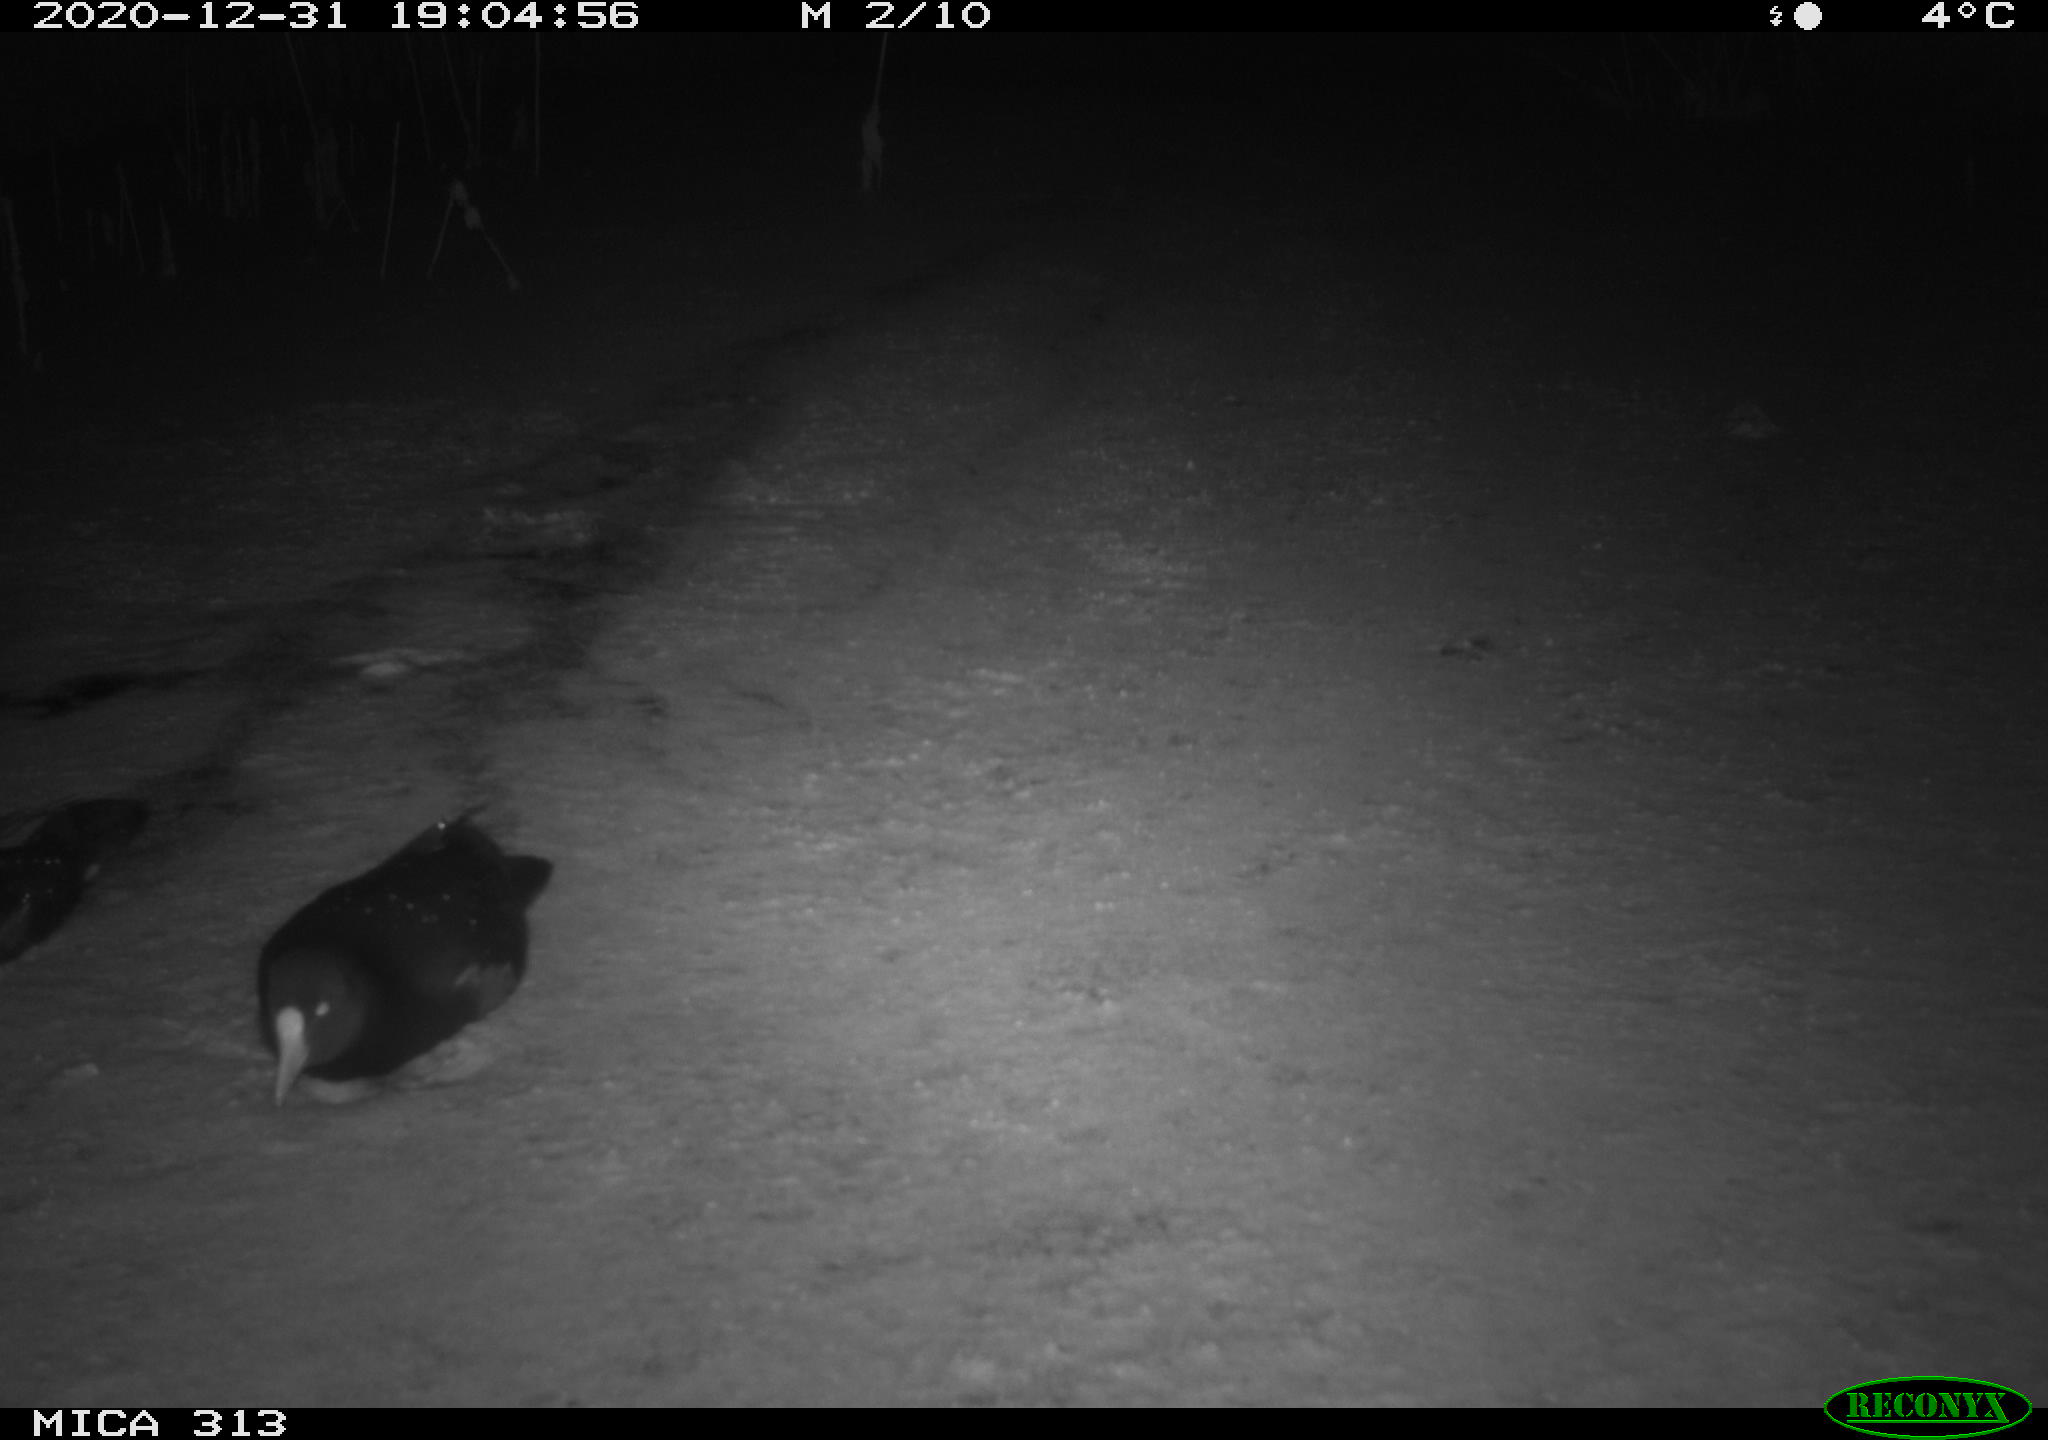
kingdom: Animalia
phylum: Chordata
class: Aves
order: Gruiformes
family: Rallidae
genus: Gallinula
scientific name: Gallinula chloropus
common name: Common moorhen
